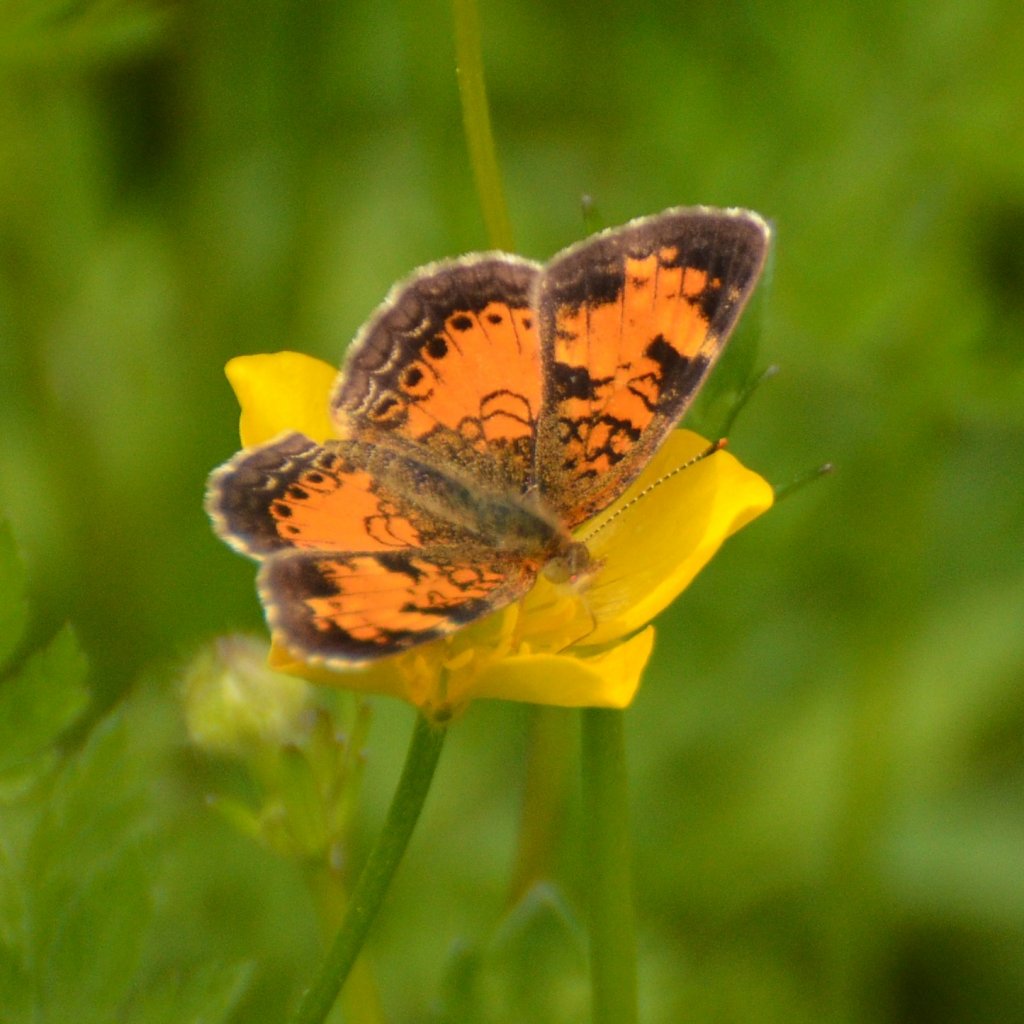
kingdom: Animalia
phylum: Arthropoda
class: Insecta
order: Lepidoptera
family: Nymphalidae
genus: Phyciodes
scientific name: Phyciodes tharos
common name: Northern Crescent
